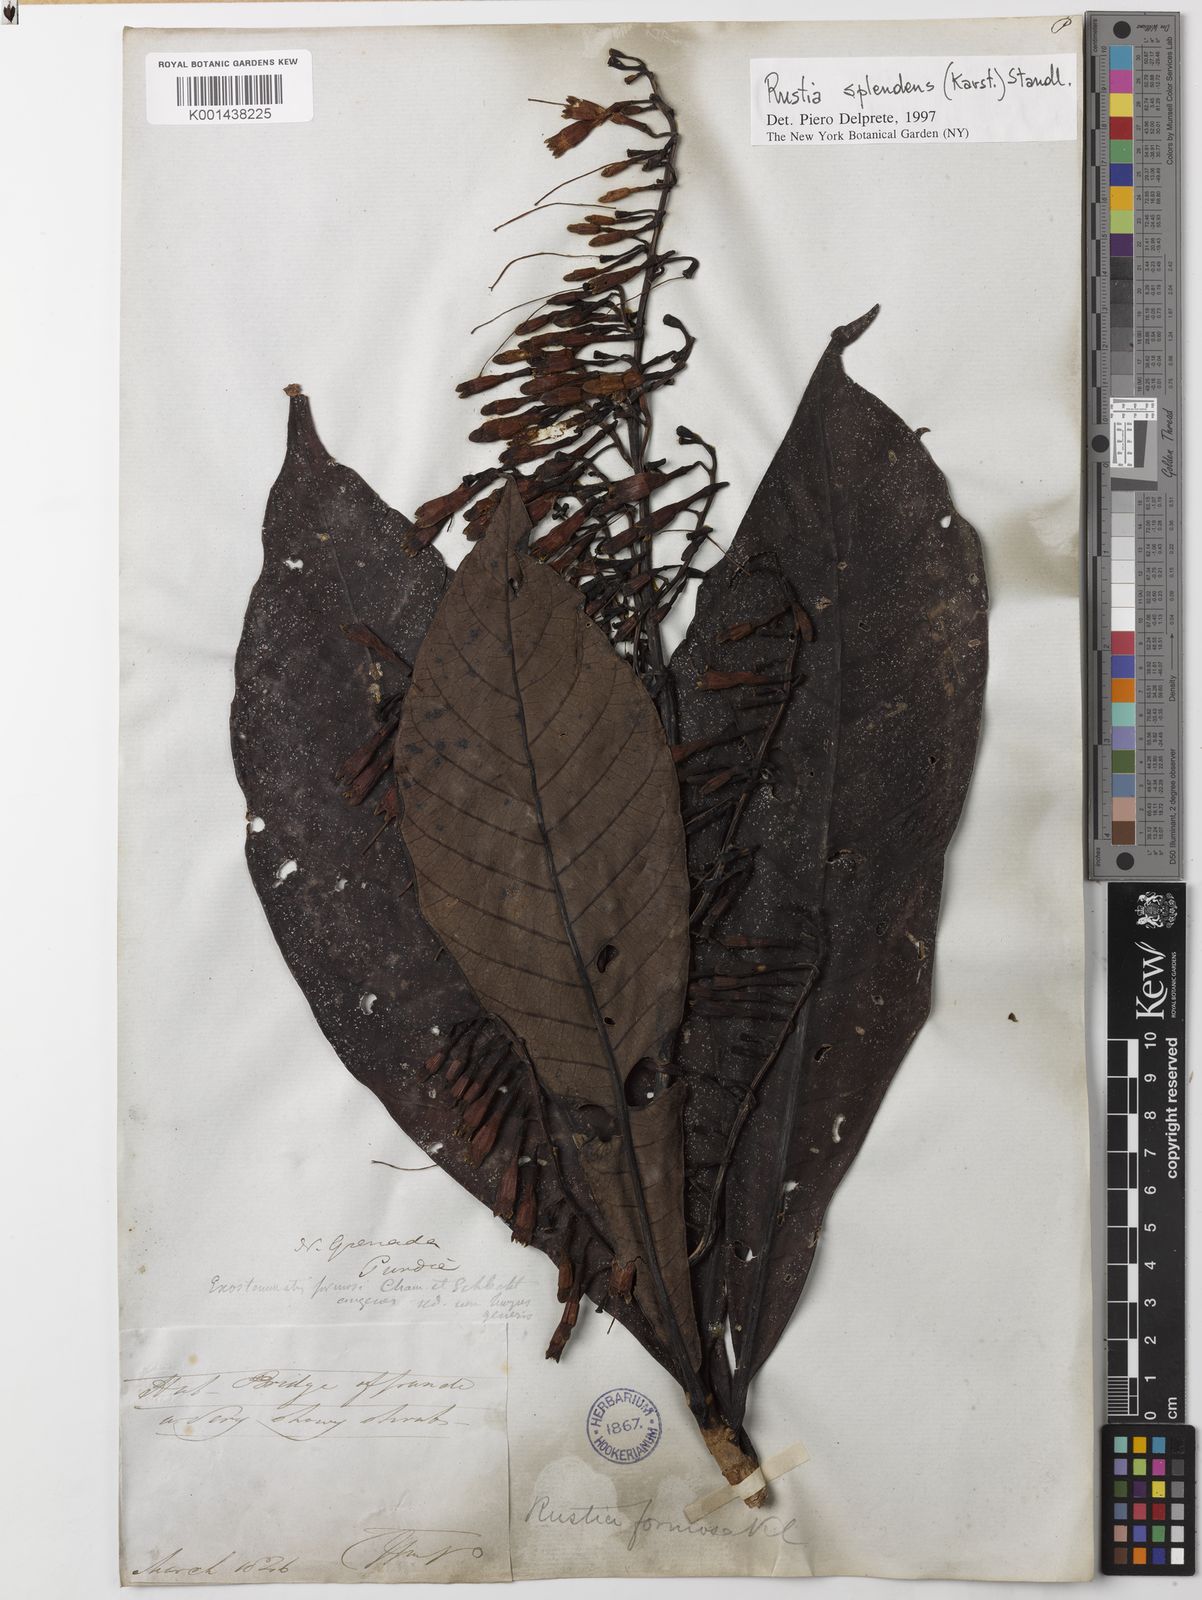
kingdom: Plantae
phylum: Tracheophyta
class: Magnoliopsida
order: Gentianales
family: Rubiaceae
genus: Rustia
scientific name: Rustia thibaudioides
